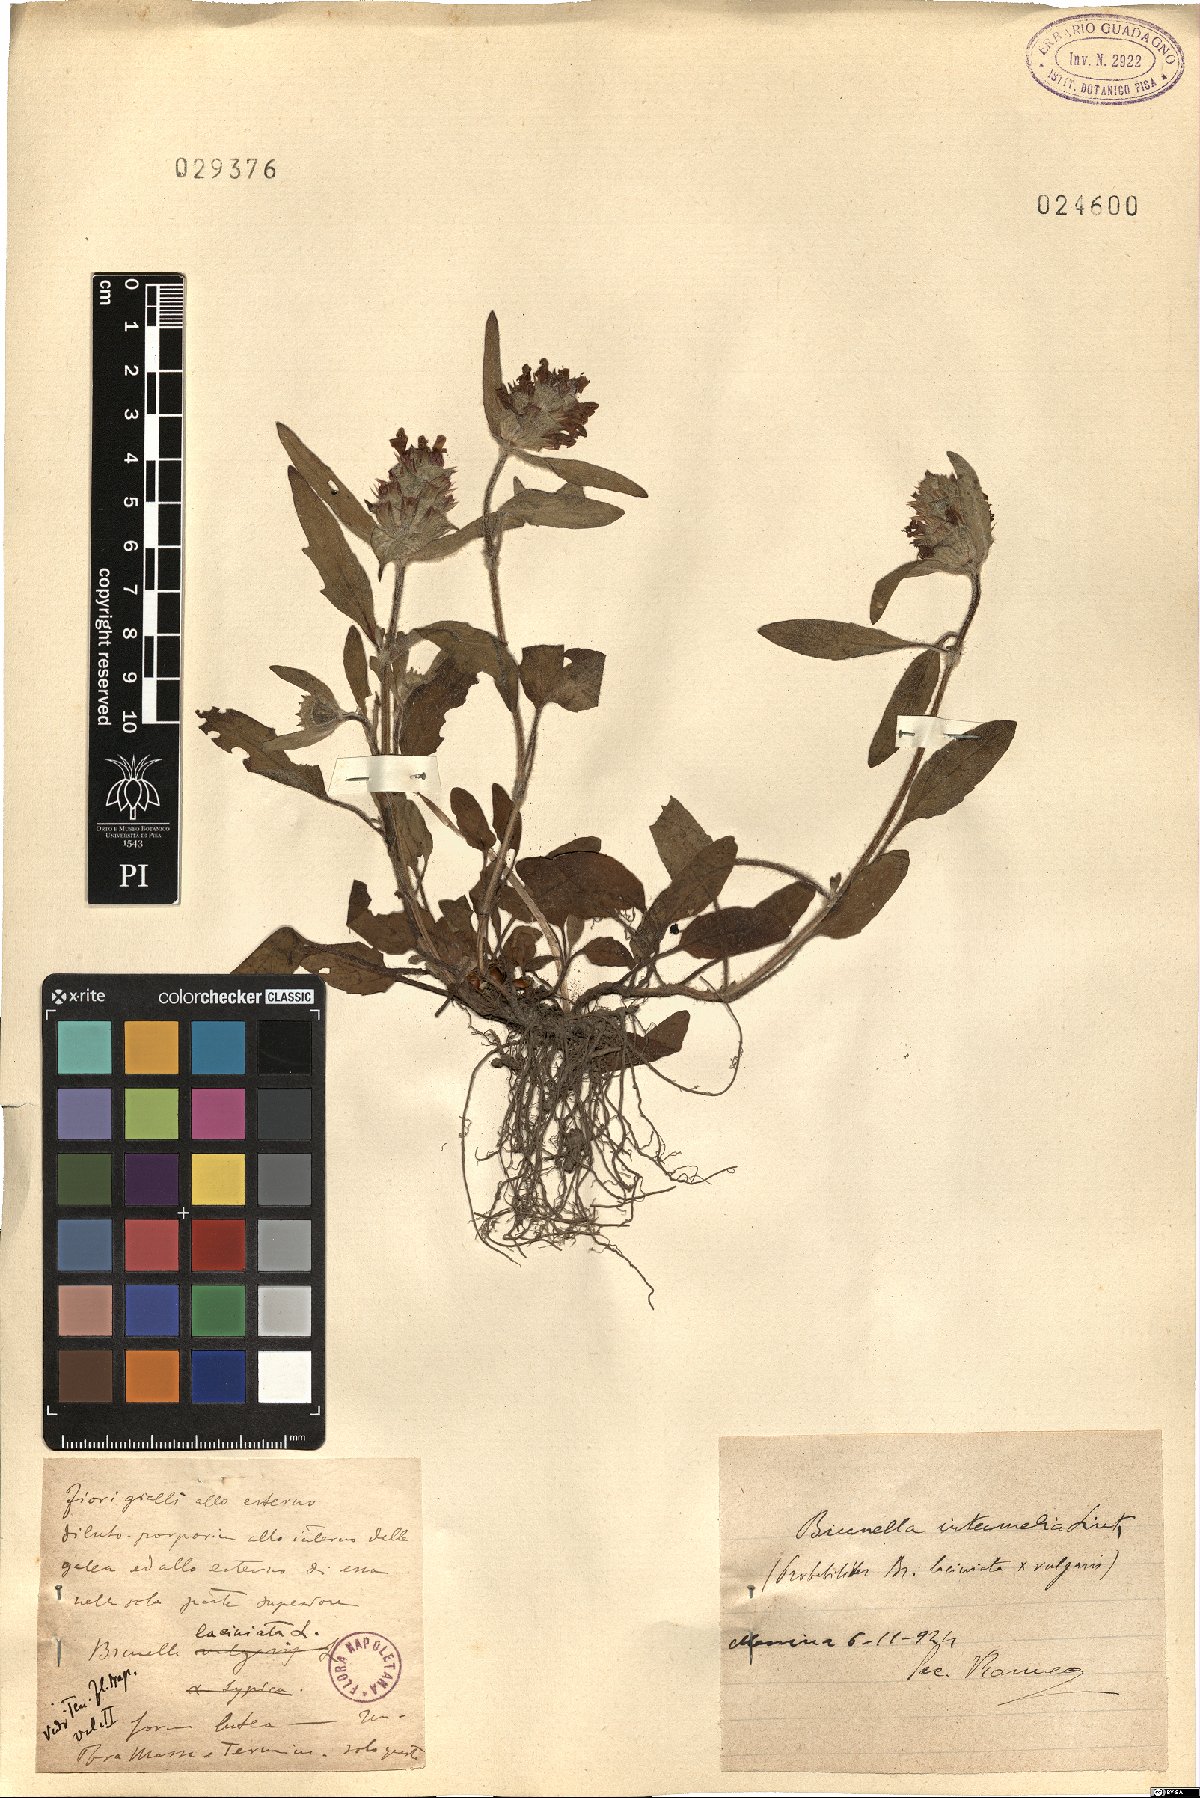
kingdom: Plantae
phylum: Tracheophyta
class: Magnoliopsida
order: Lamiales
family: Lamiaceae
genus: Prunella
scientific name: Prunella laciniata
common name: Cut-leaved selfheal
